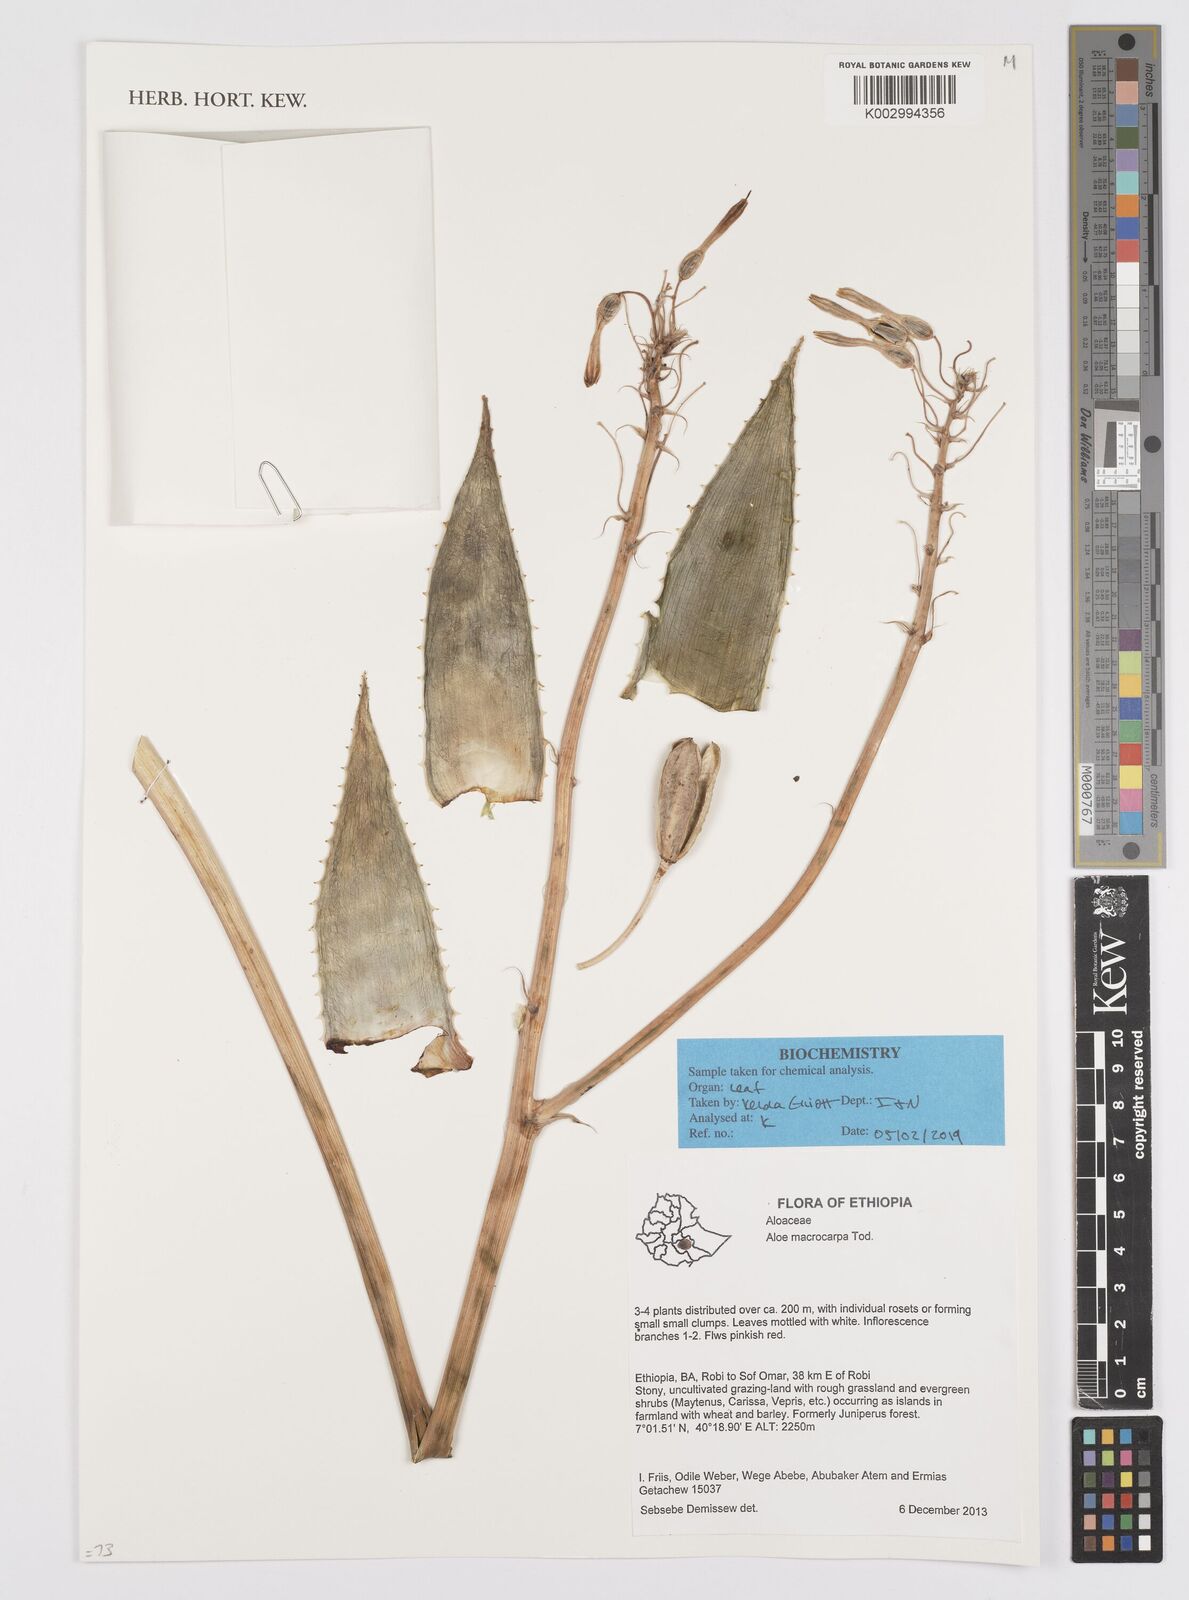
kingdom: Plantae
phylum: Tracheophyta
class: Liliopsida
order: Asparagales
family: Asphodelaceae
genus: Aloe
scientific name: Aloe macrocarpa
